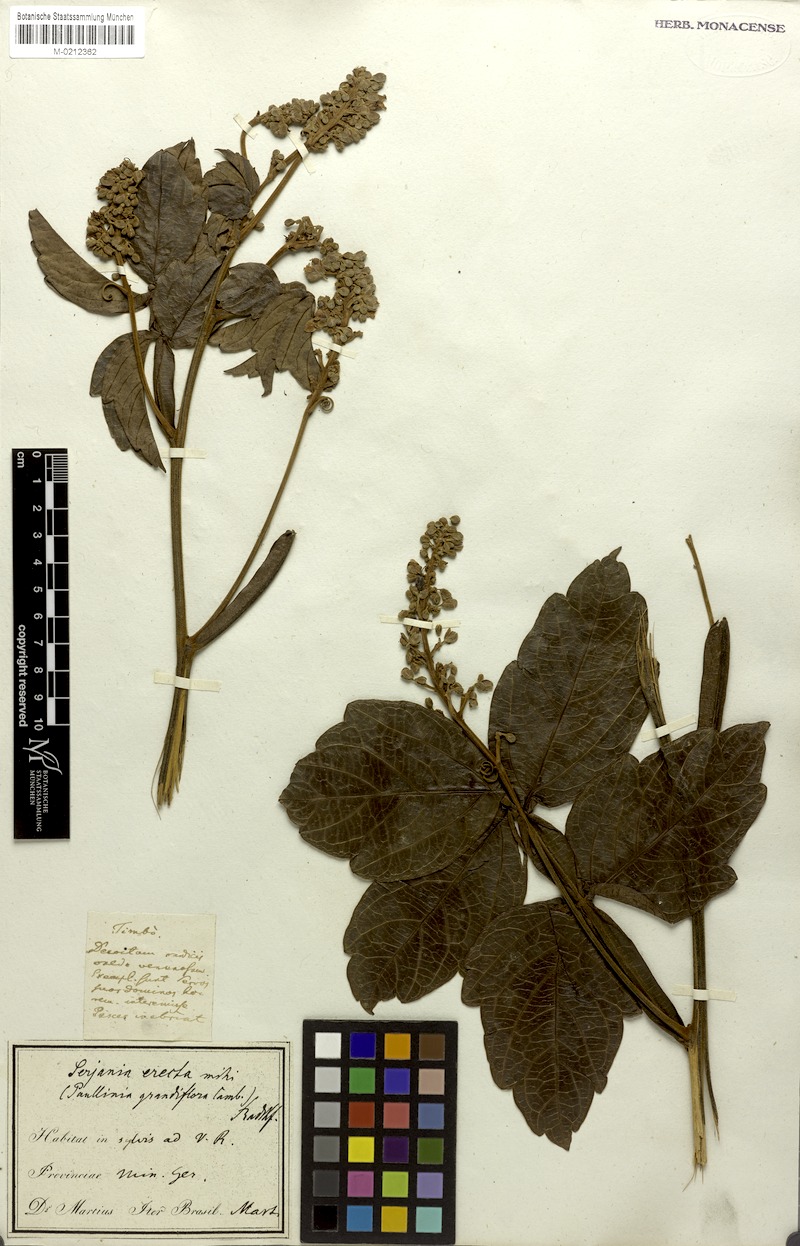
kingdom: Plantae
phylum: Tracheophyta
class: Magnoliopsida
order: Sapindales
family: Sapindaceae
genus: Serjania
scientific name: Serjania erecta
